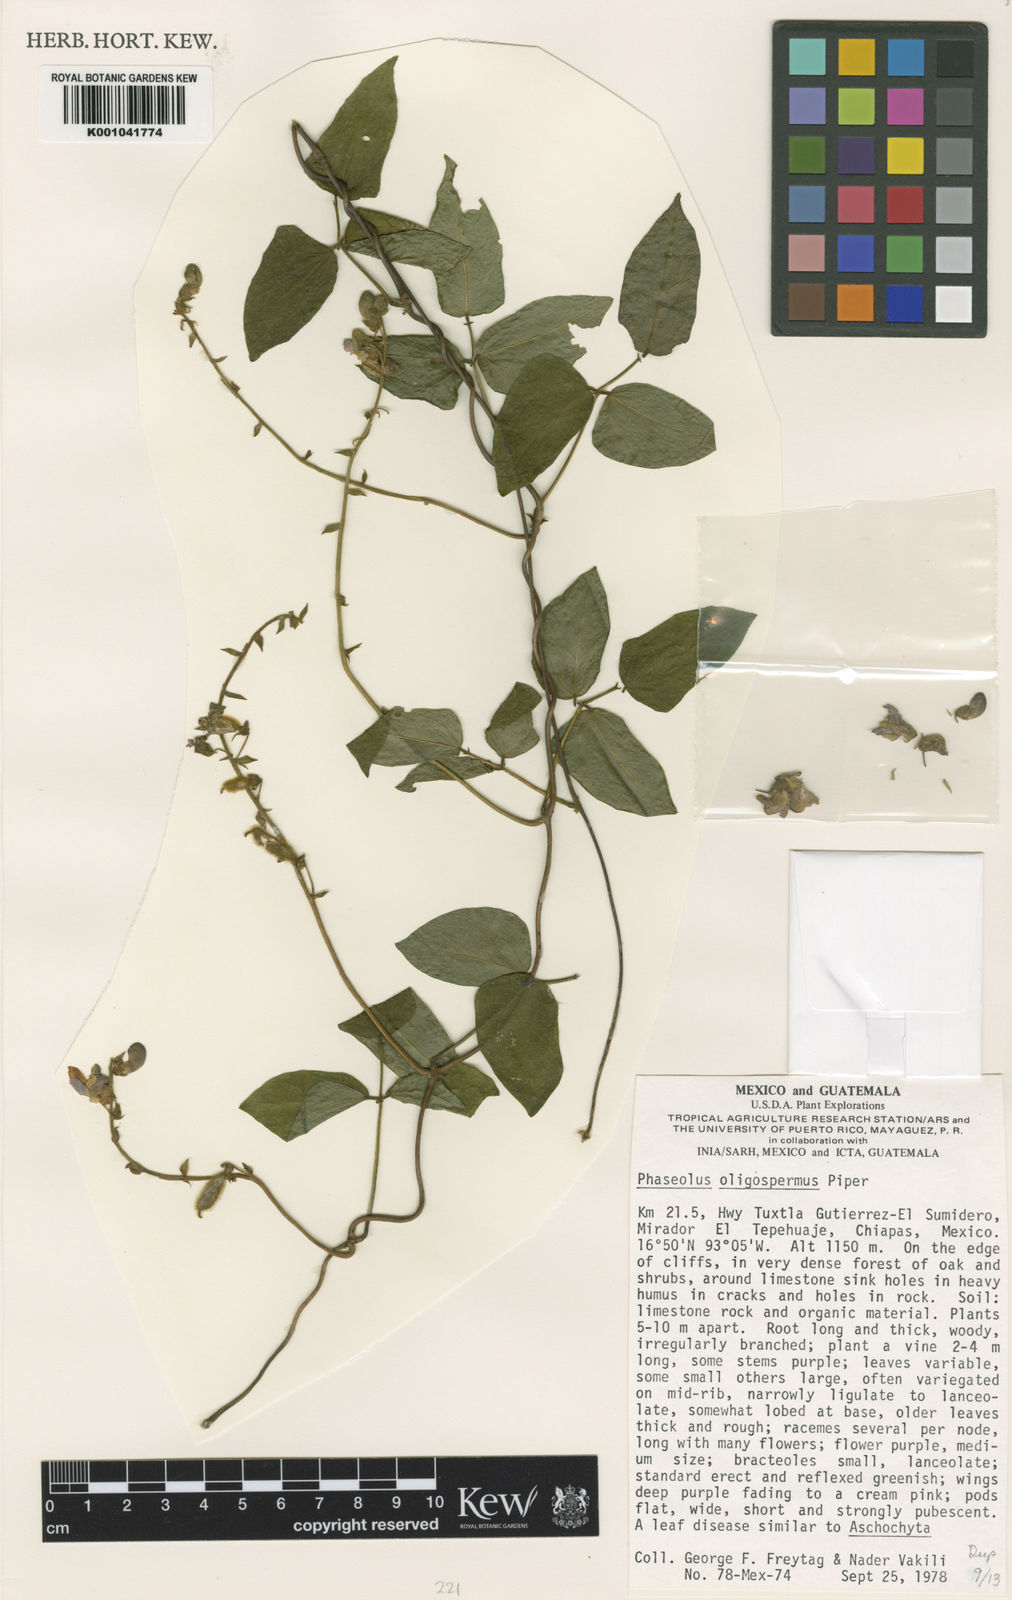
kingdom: Plantae
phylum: Tracheophyta
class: Magnoliopsida
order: Fabales
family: Fabaceae
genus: Phaseolus
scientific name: Phaseolus oligospermus
